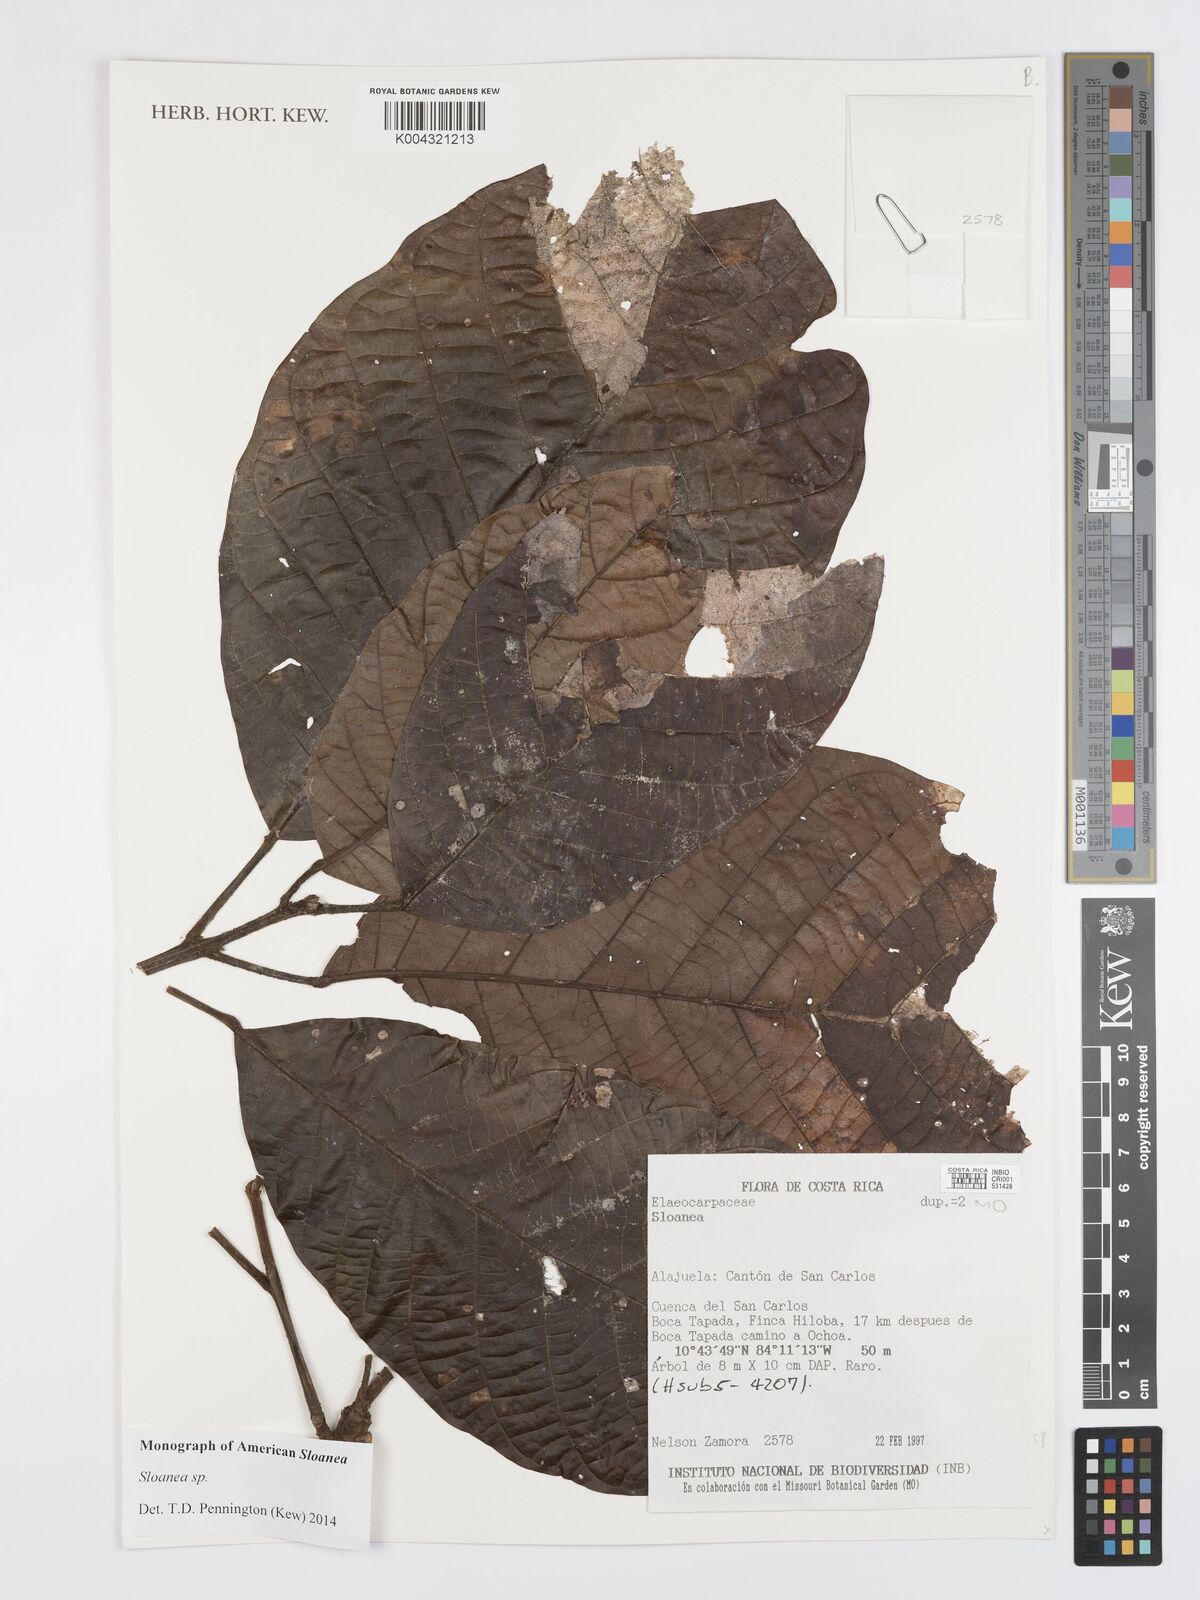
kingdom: Plantae
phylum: Tracheophyta
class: Magnoliopsida
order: Oxalidales
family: Elaeocarpaceae
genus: Sloanea
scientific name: Sloanea
